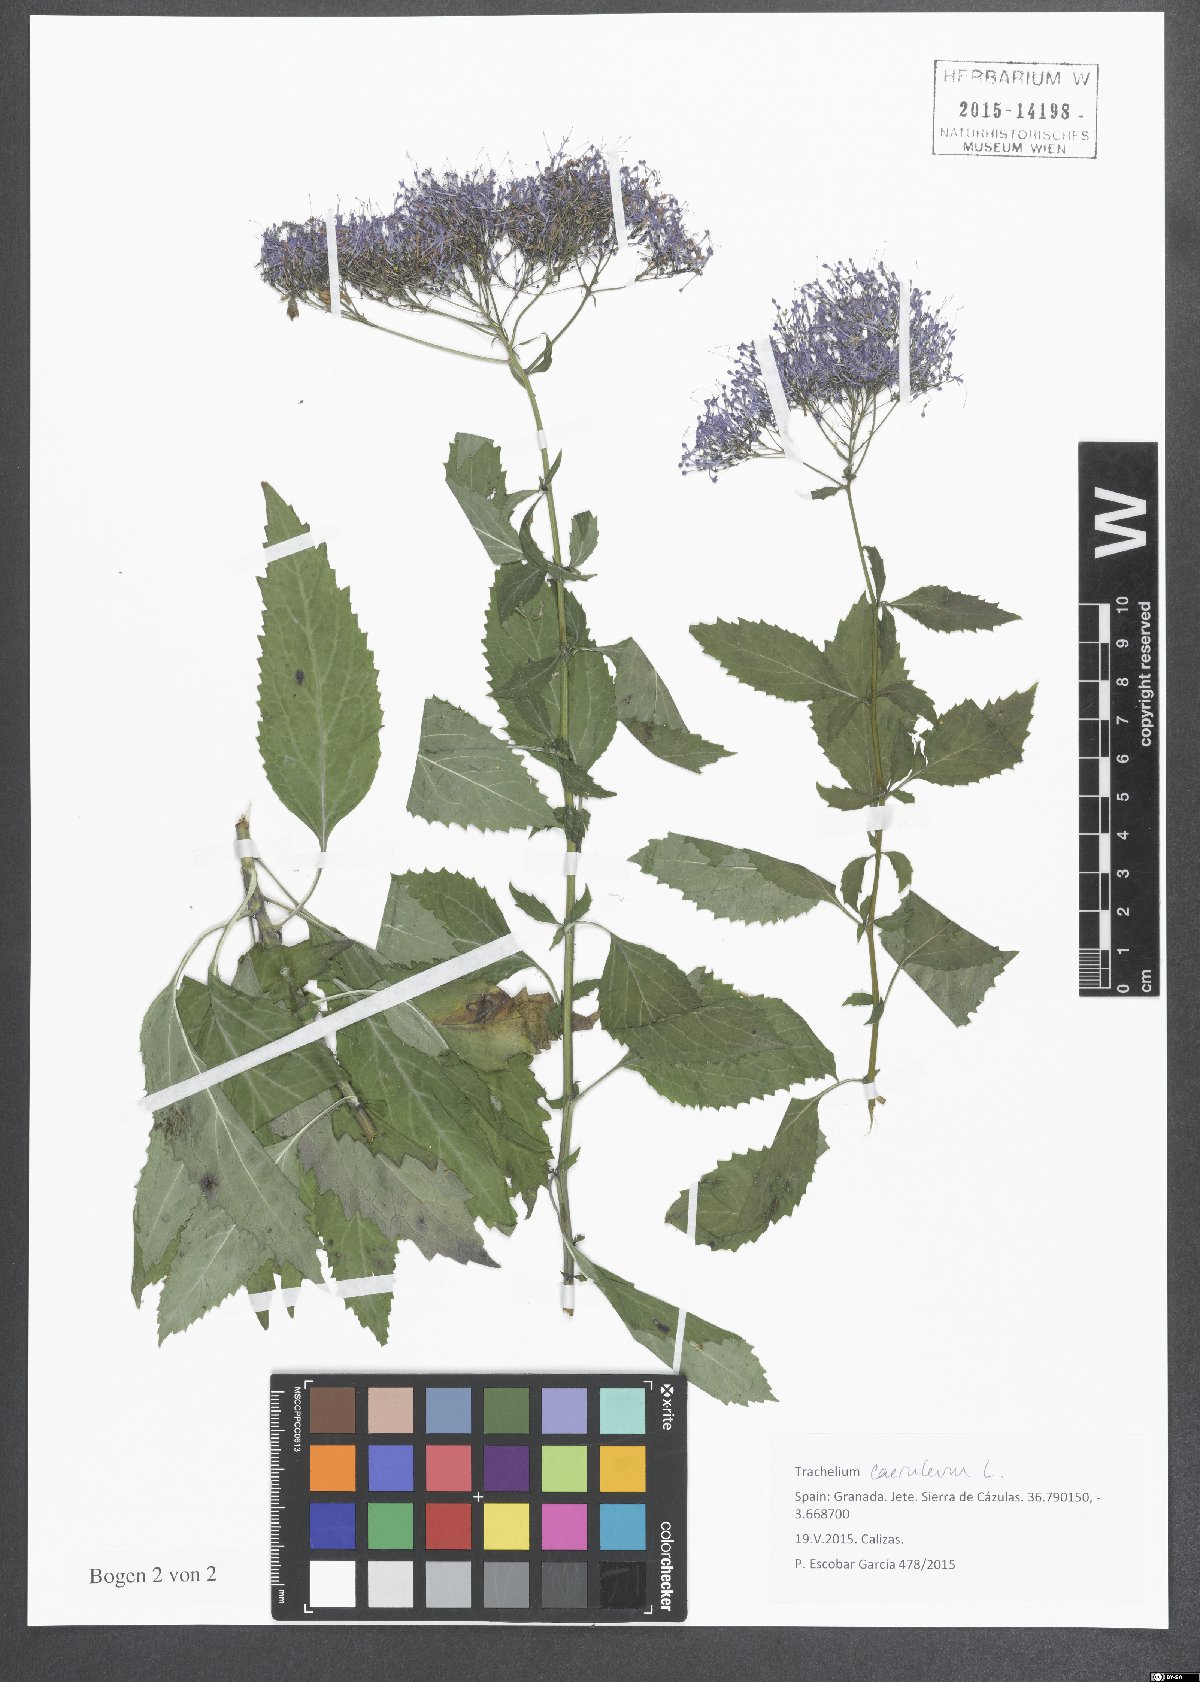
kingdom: Plantae
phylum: Tracheophyta
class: Magnoliopsida
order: Asterales
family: Campanulaceae
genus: Trachelium
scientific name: Trachelium caeruleum
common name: Throatwort
